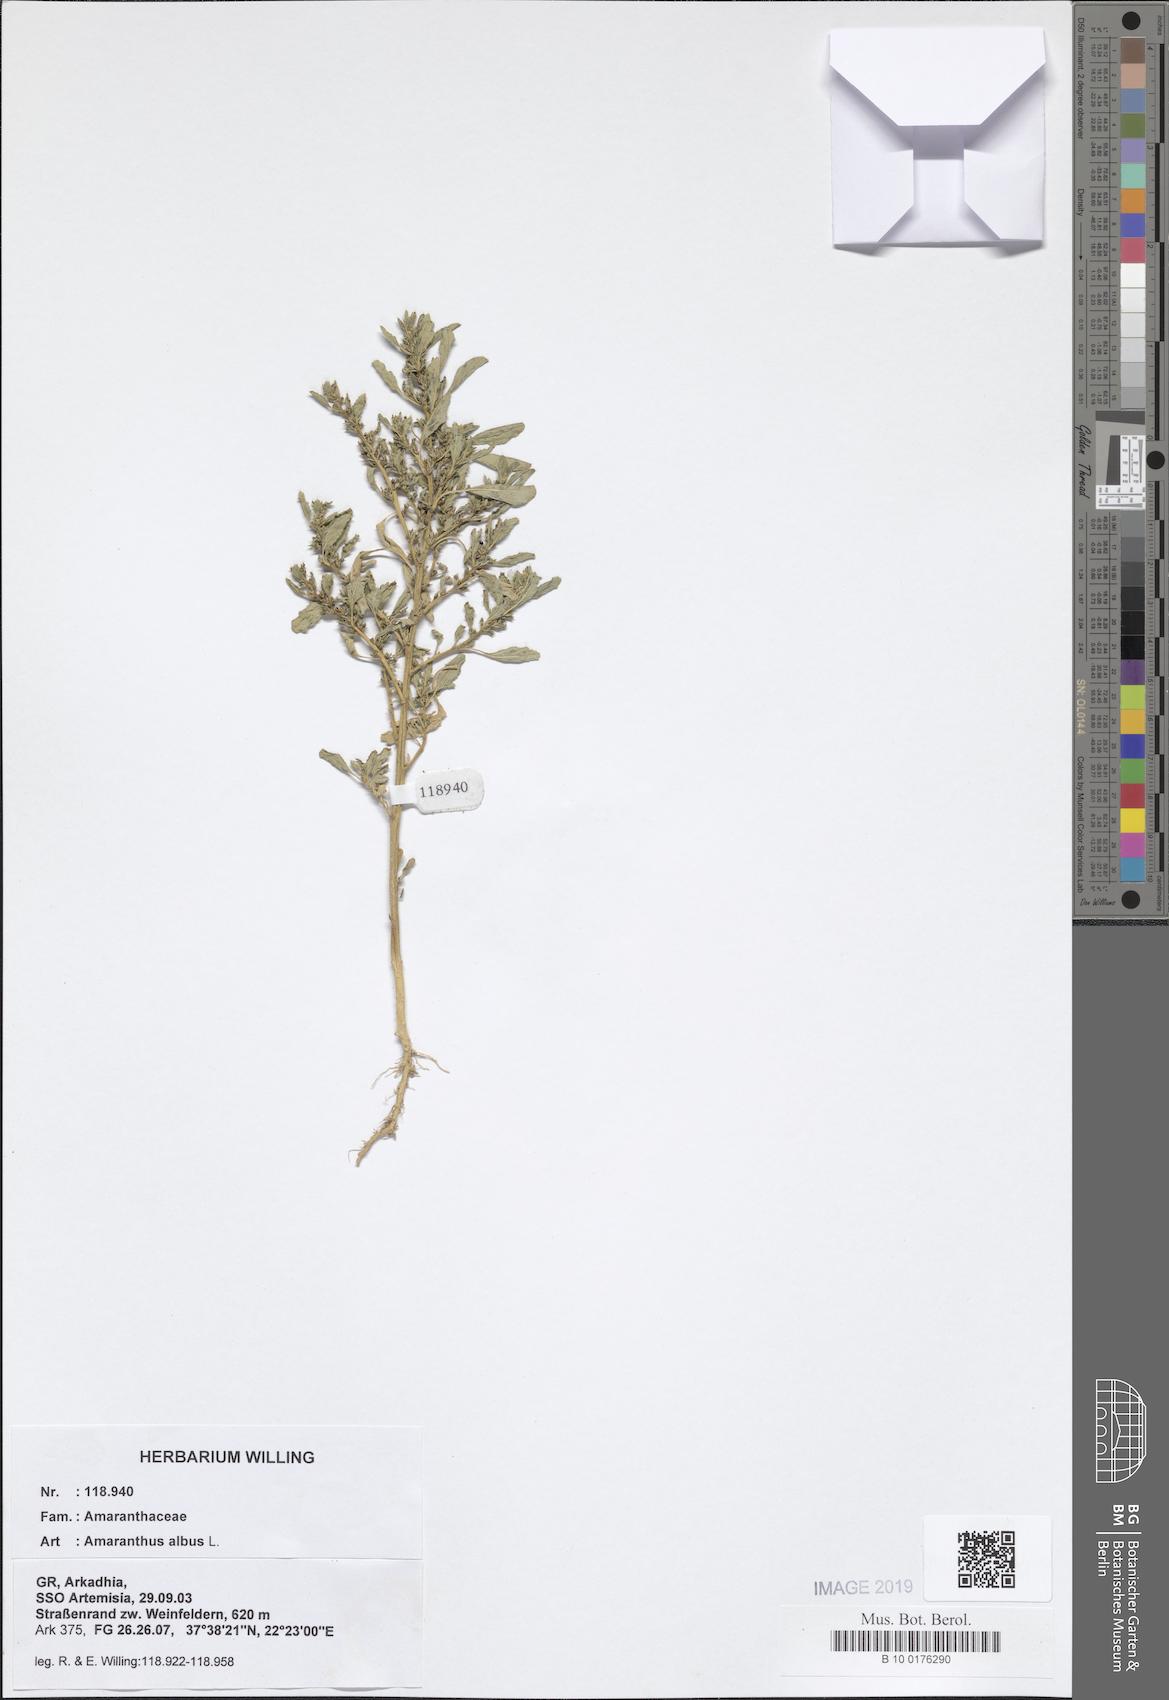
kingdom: Plantae
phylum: Tracheophyta
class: Magnoliopsida
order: Caryophyllales
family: Amaranthaceae
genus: Amaranthus
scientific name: Amaranthus albus
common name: White pigweed
